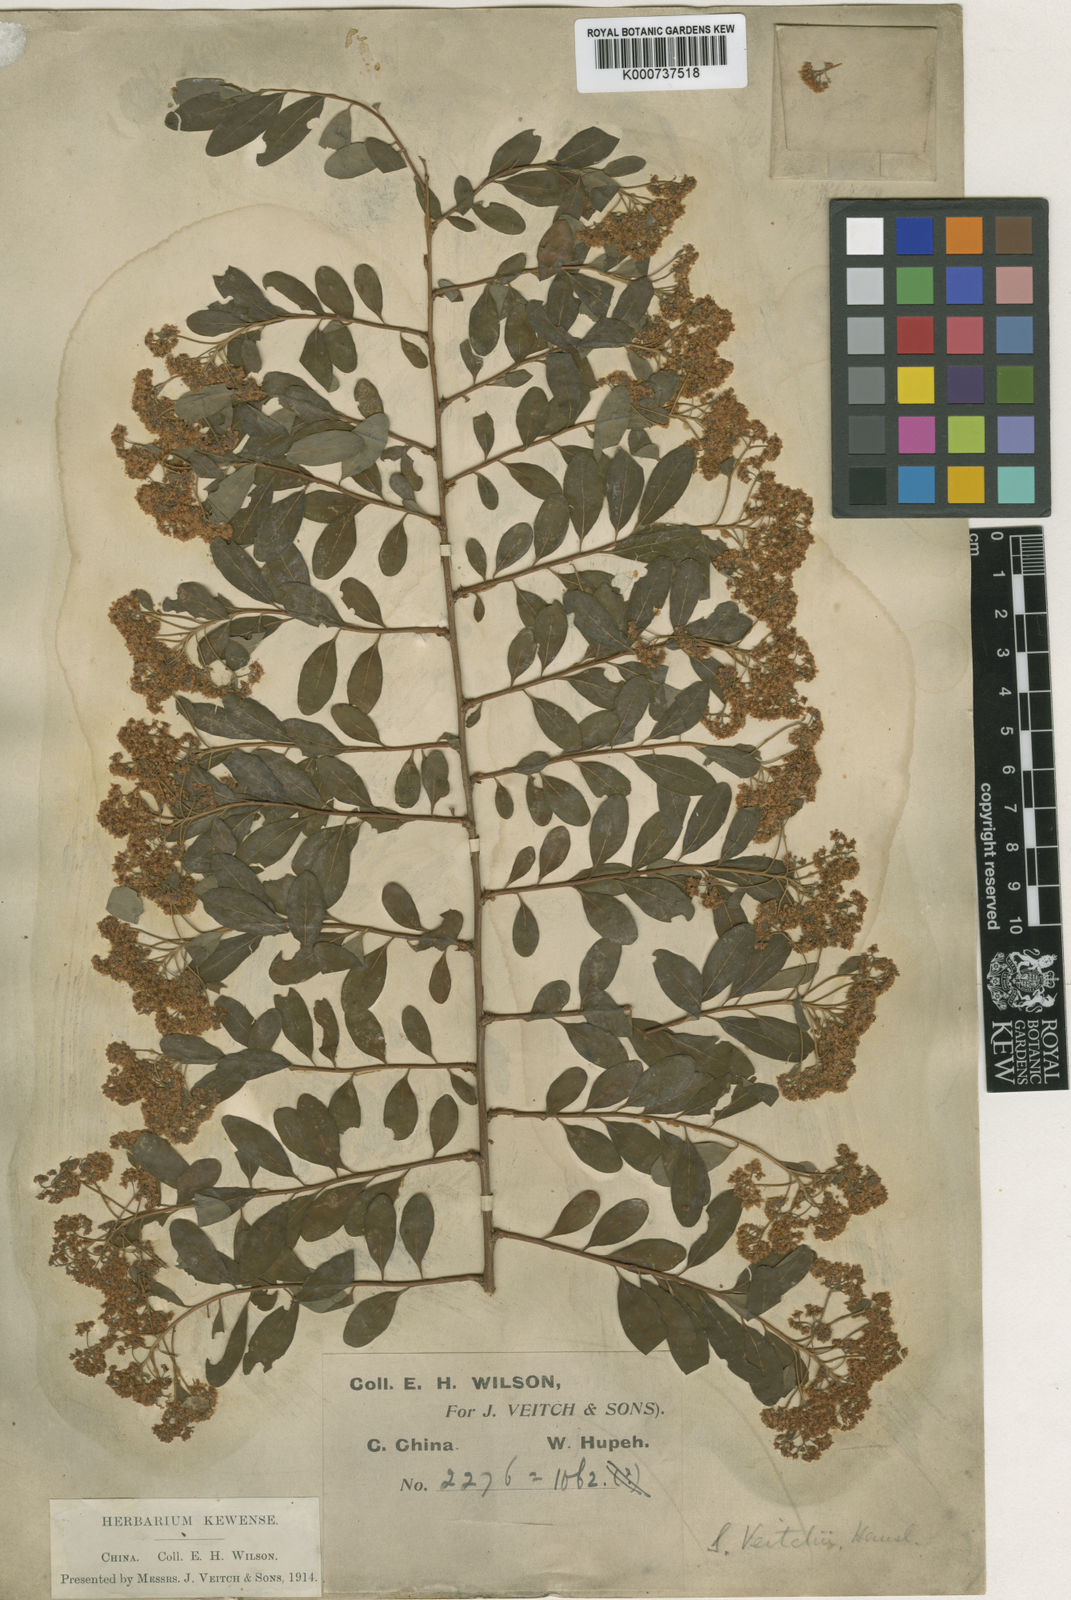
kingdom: Plantae
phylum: Tracheophyta
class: Magnoliopsida
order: Rosales
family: Rosaceae
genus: Spiraea
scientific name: Spiraea veitchii
